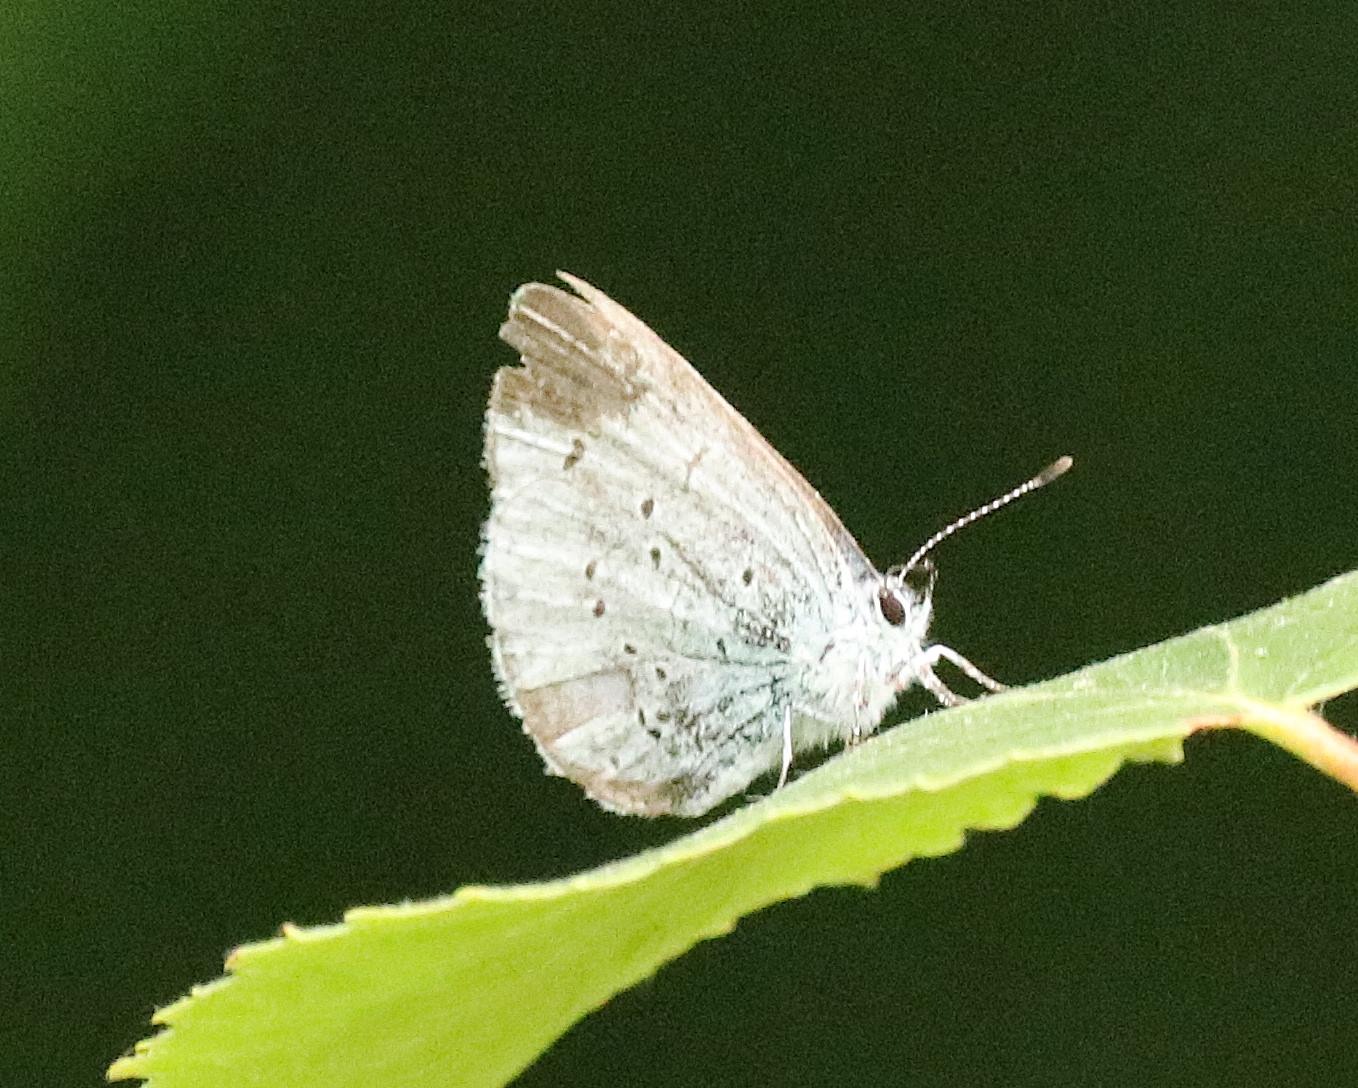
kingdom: Animalia
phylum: Arthropoda
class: Insecta
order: Lepidoptera
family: Lycaenidae
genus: Celastrina
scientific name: Celastrina argiolus
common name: Skovblåfugl
